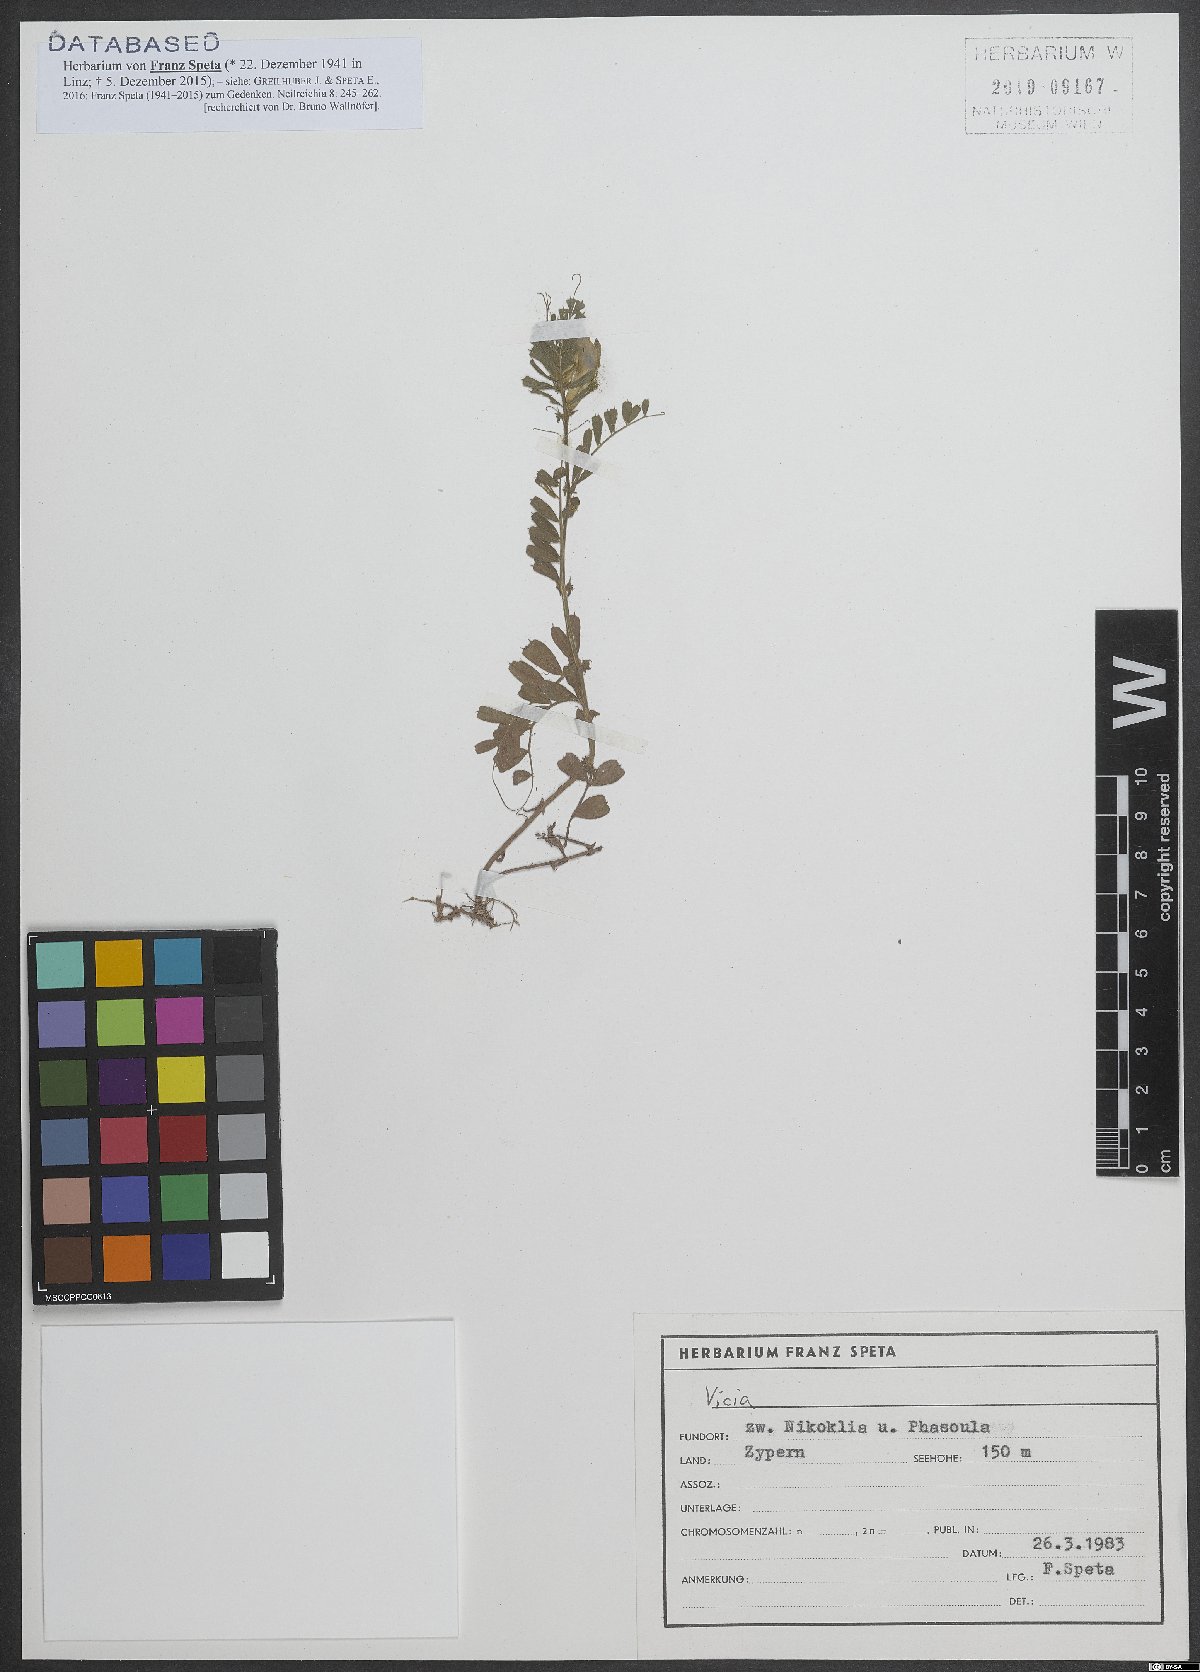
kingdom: Plantae
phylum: Tracheophyta
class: Magnoliopsida
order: Fabales
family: Fabaceae
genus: Vicia
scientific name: Vicia
